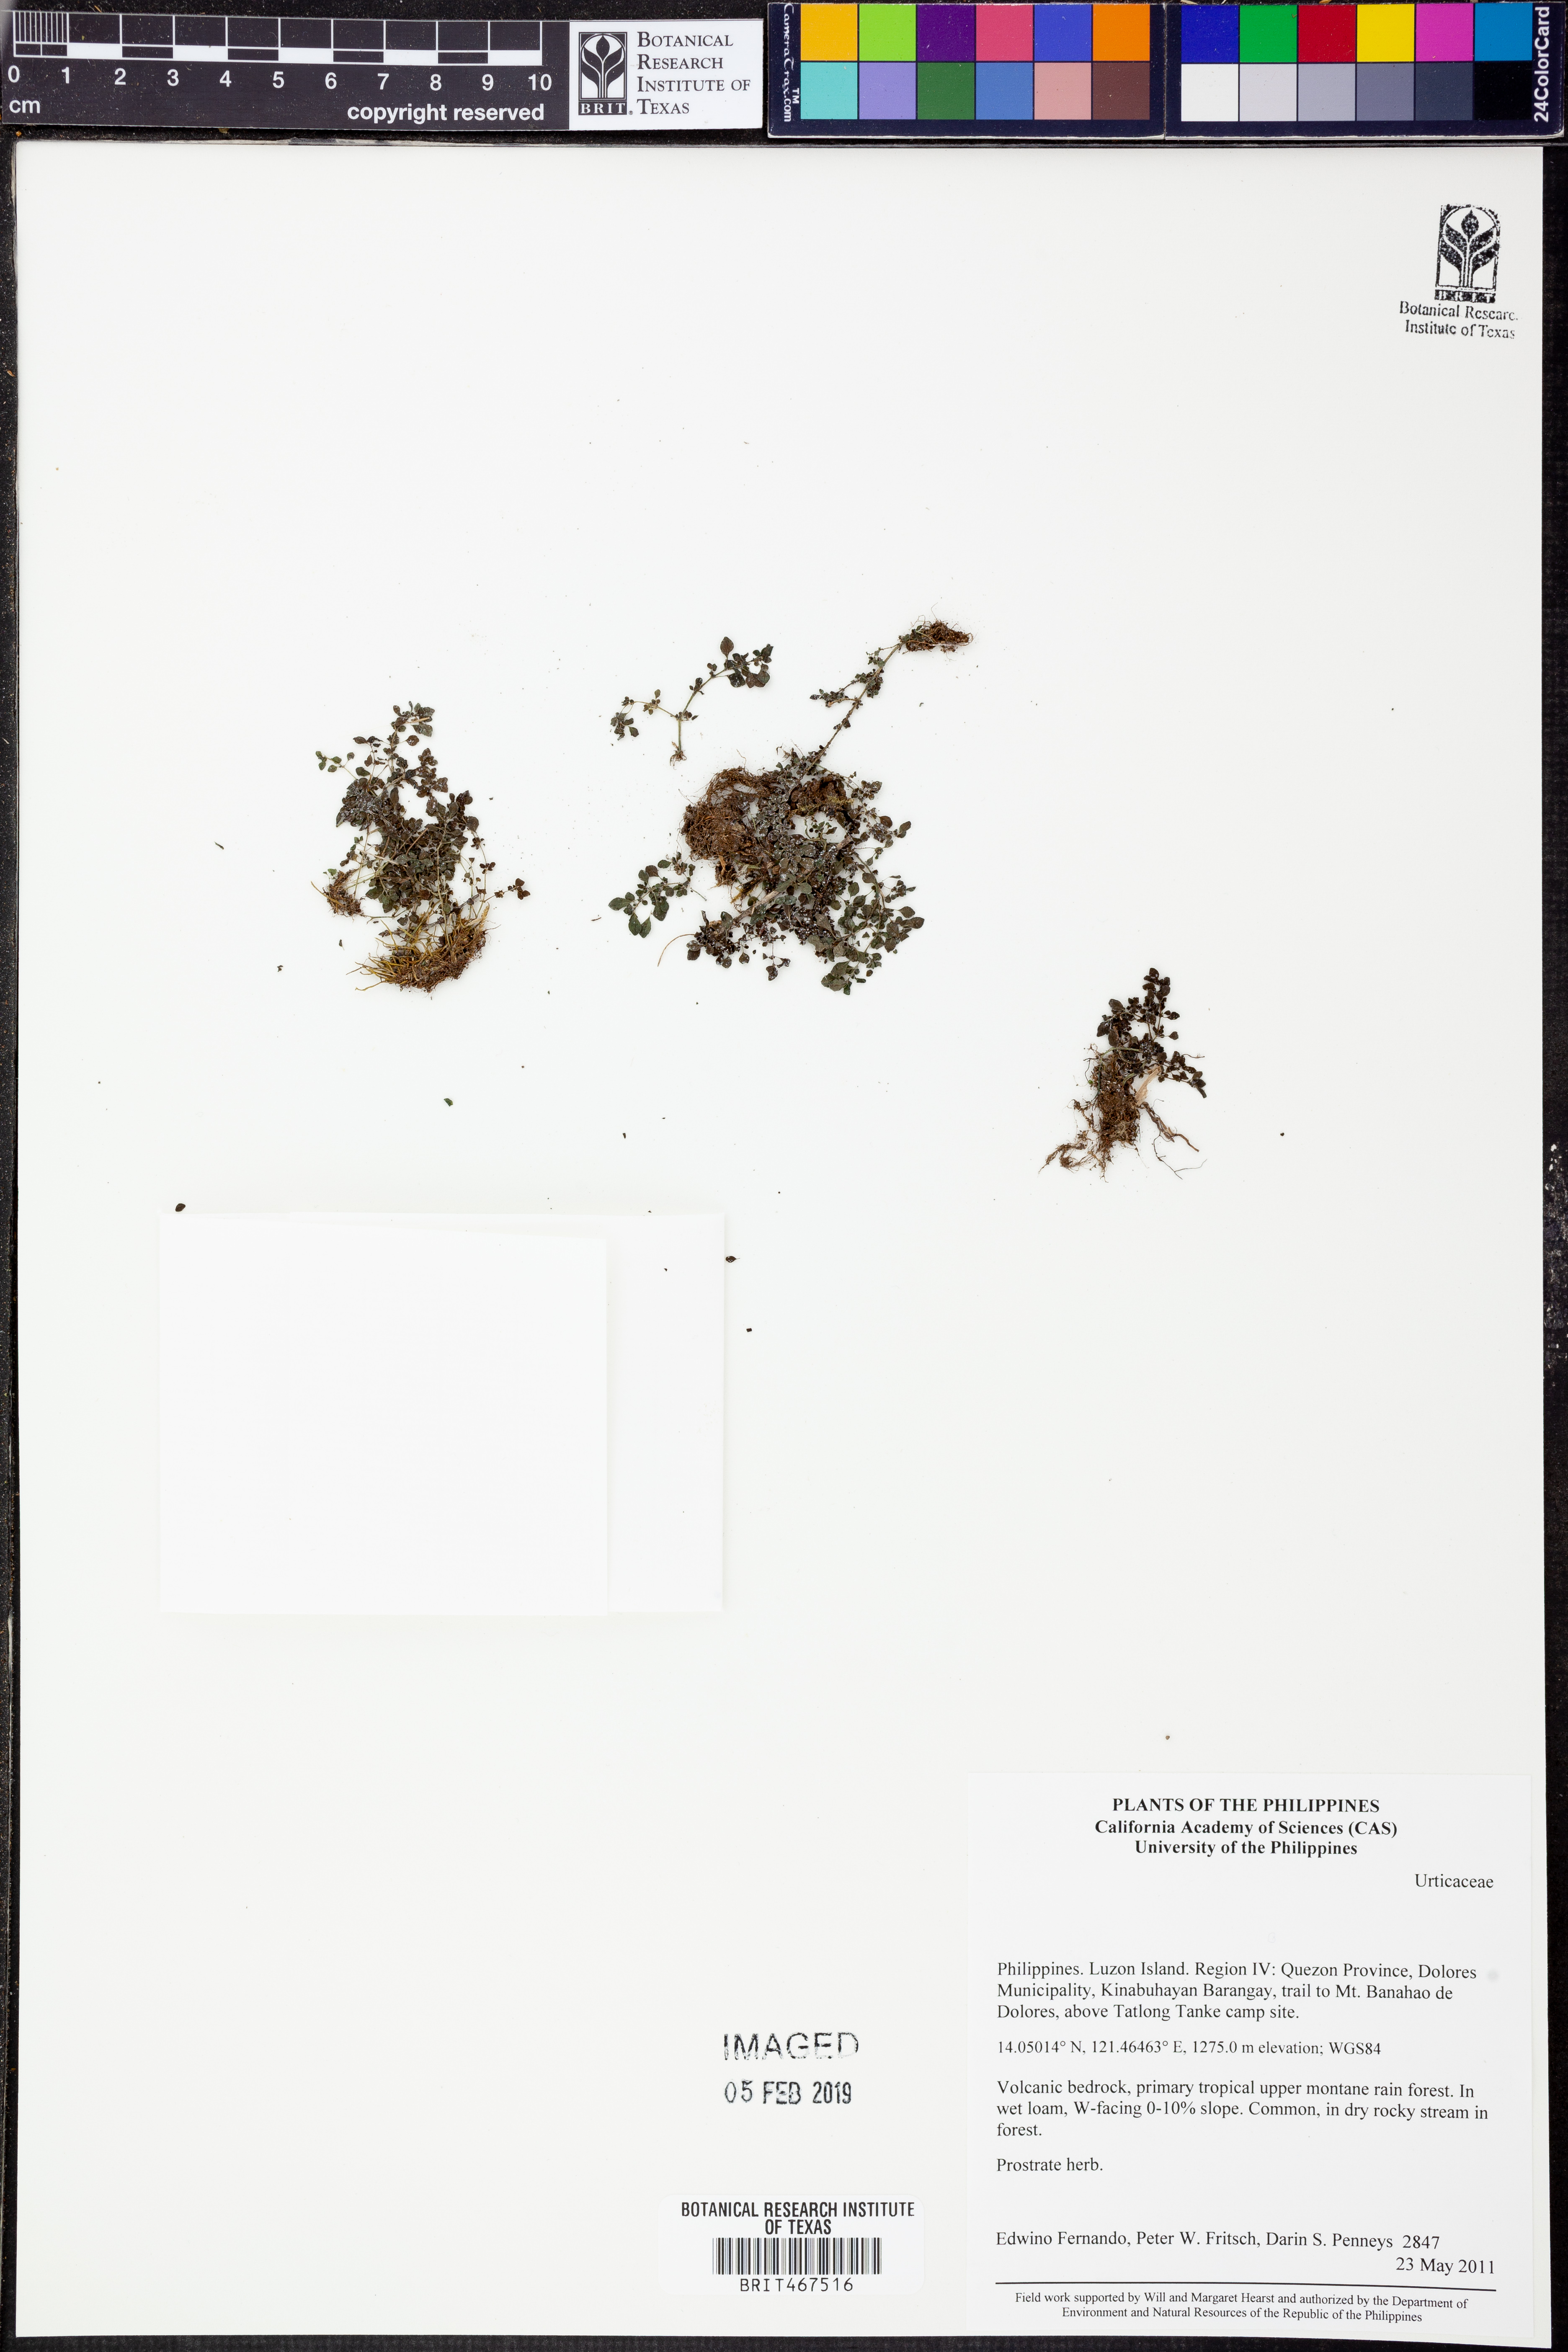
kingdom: Plantae
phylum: Tracheophyta
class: Magnoliopsida
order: Rosales
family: Urticaceae
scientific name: Urticaceae
